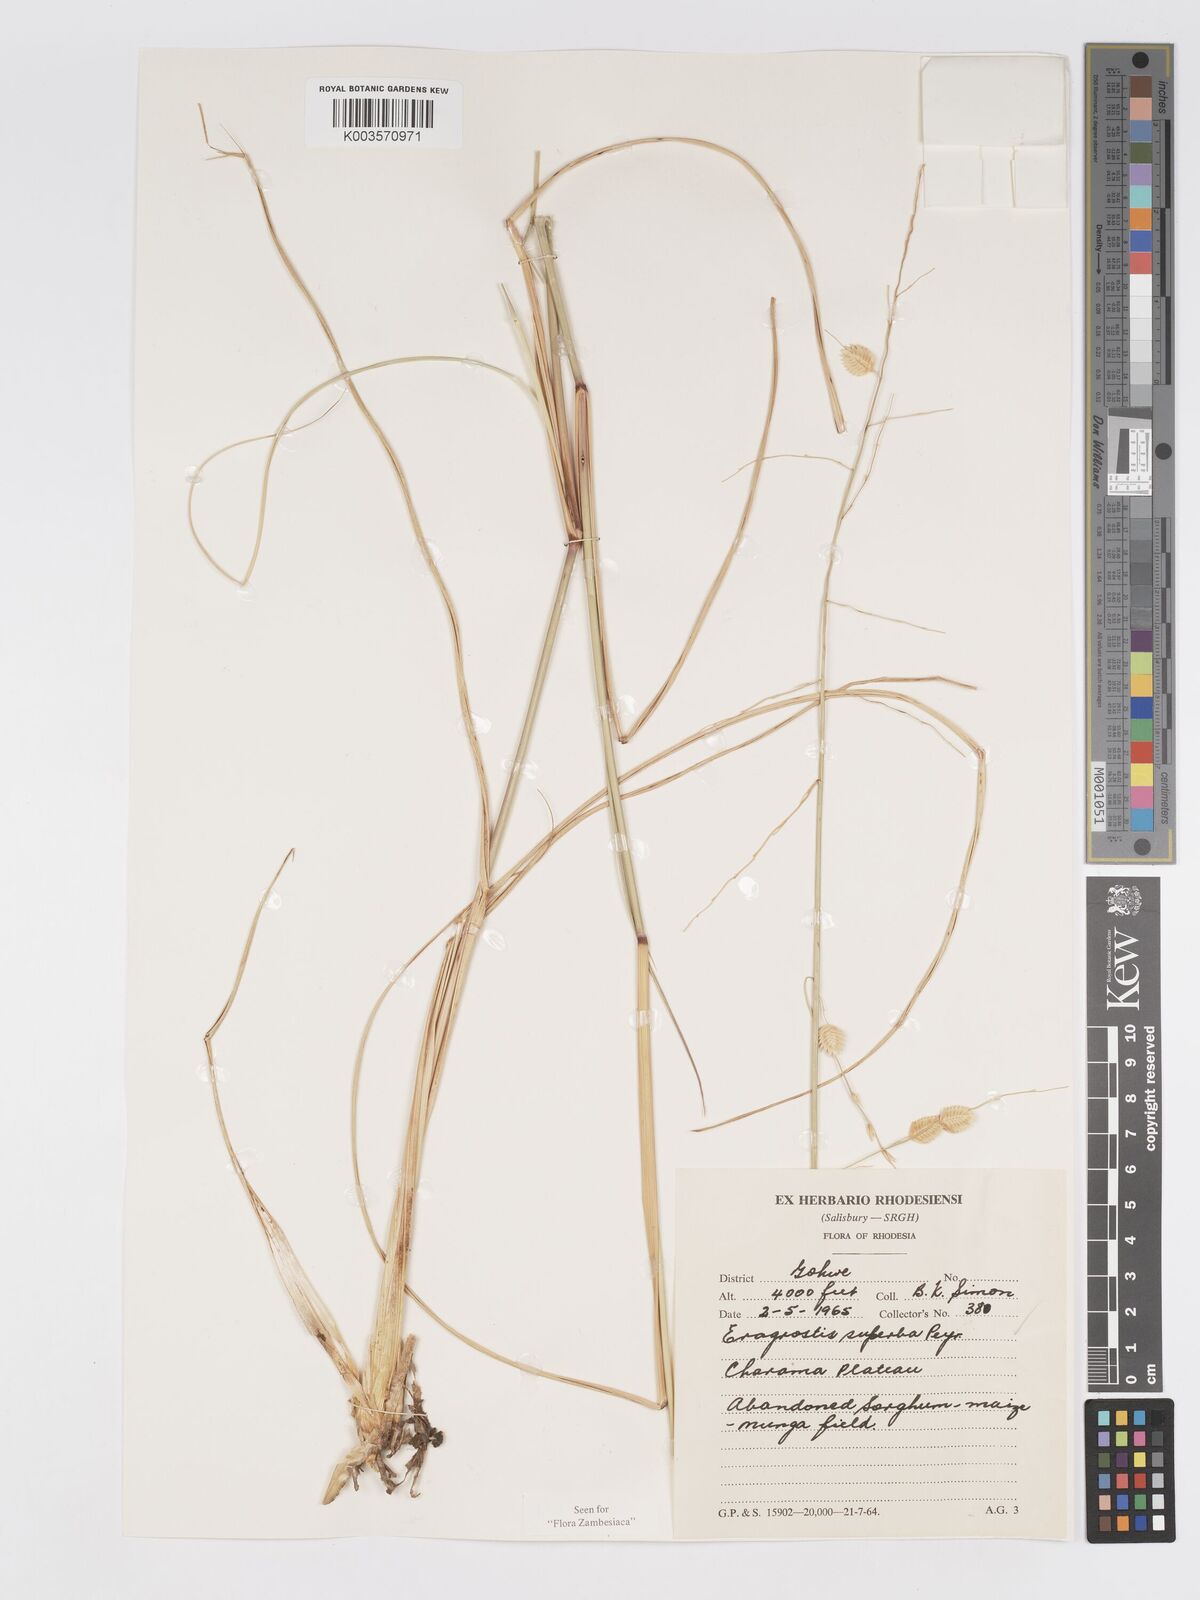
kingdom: Plantae
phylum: Tracheophyta
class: Liliopsida
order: Poales
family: Poaceae
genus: Eragrostis
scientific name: Eragrostis superba
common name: Wilman lovegrass
